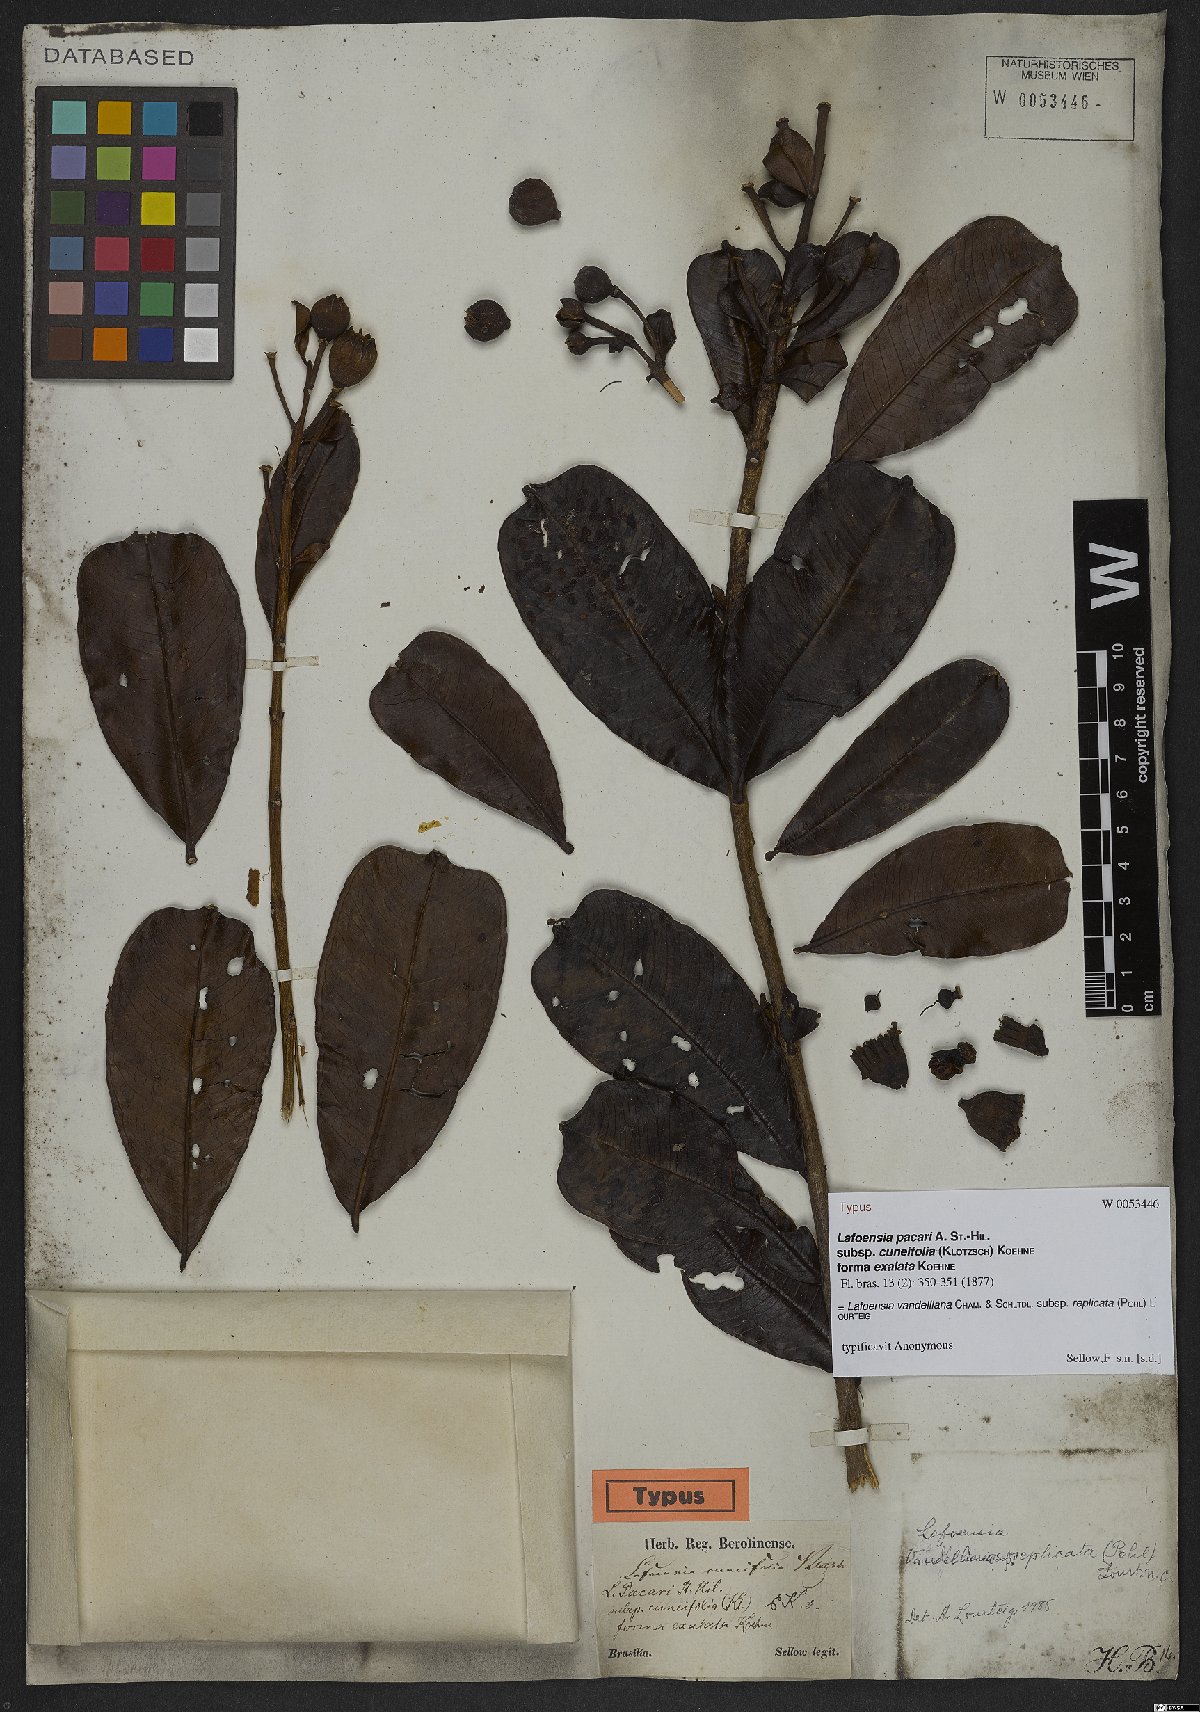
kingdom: Plantae
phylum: Tracheophyta
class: Magnoliopsida
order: Myrtales
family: Lythraceae
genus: Lafoensia
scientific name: Lafoensia vandelliana
